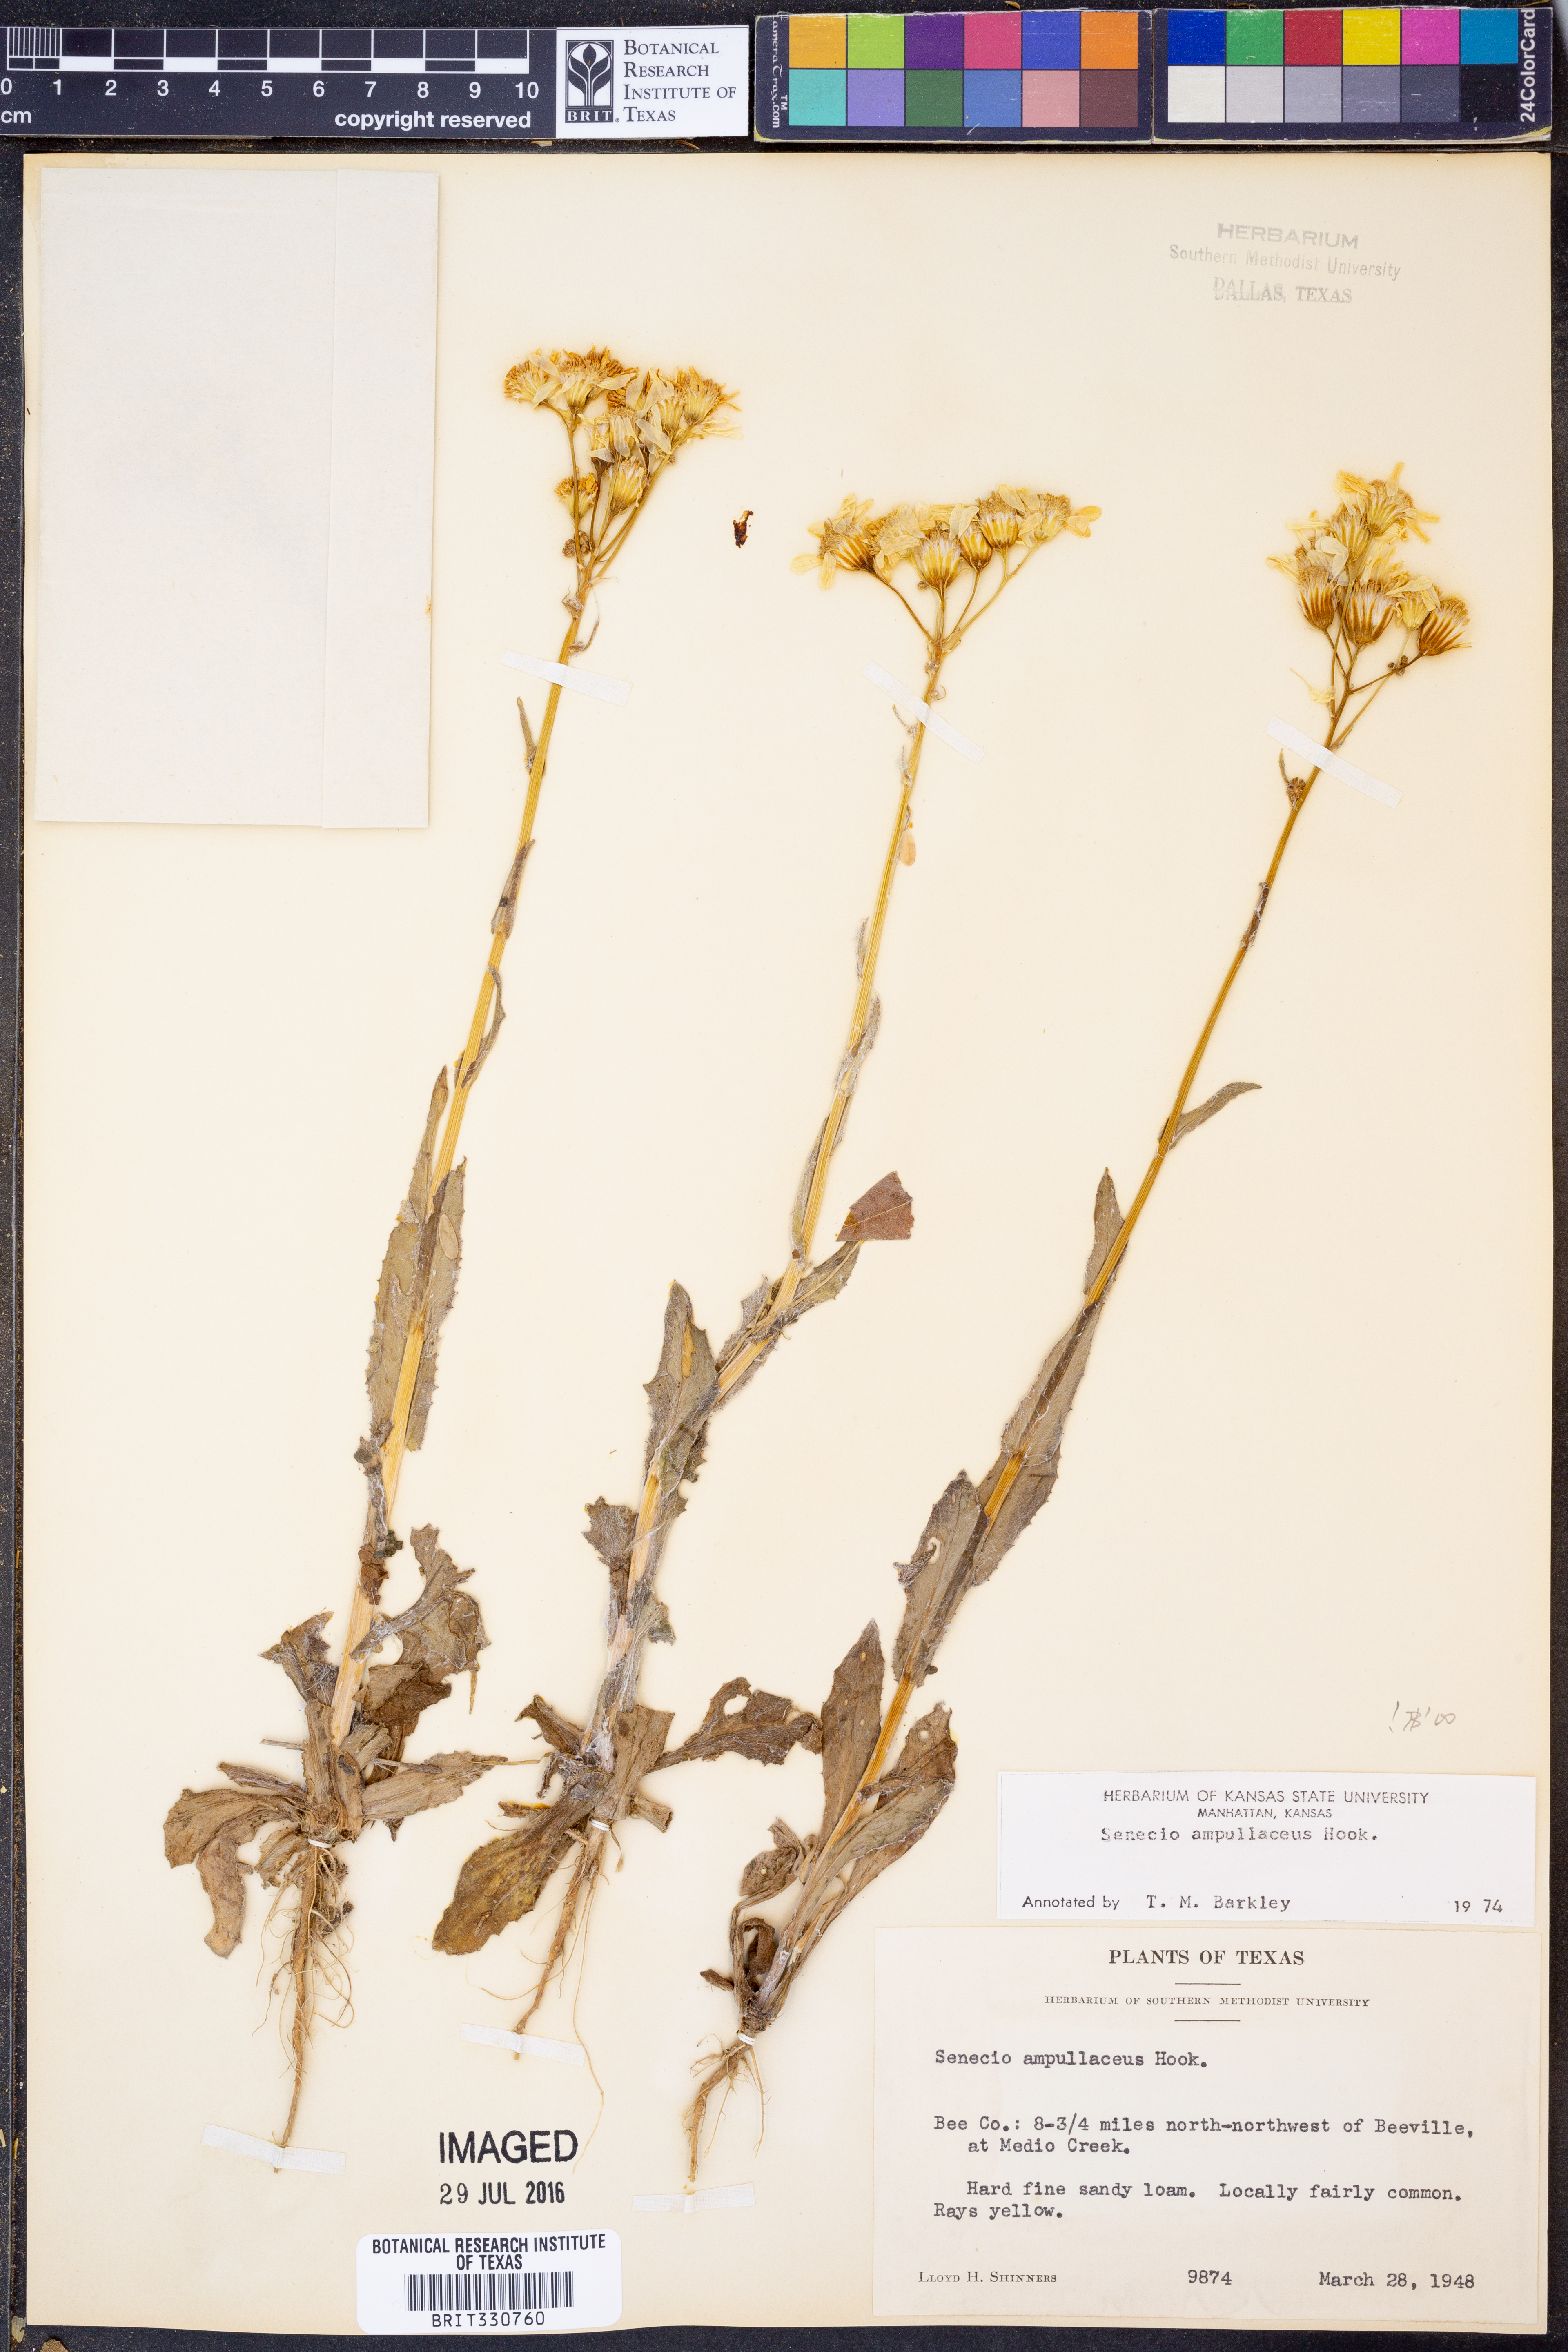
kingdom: Plantae
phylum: Tracheophyta
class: Magnoliopsida
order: Asterales
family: Asteraceae
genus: Senecio
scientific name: Senecio ampullaceus
